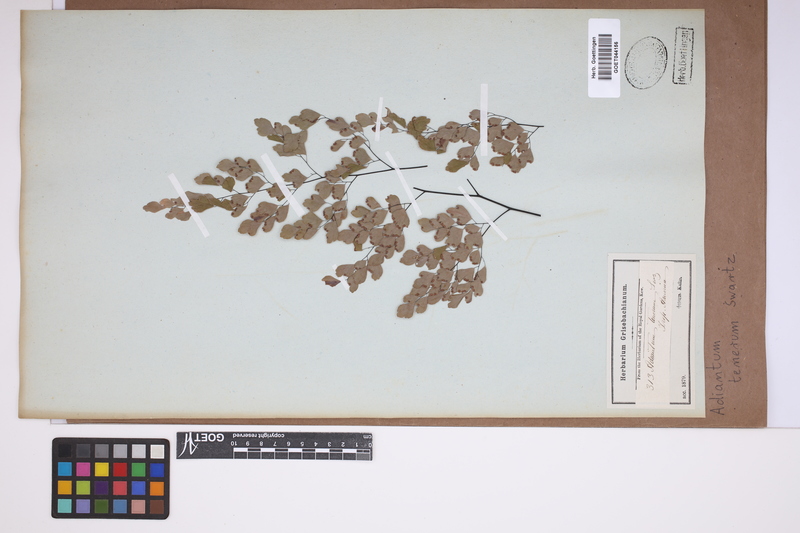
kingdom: Plantae
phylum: Tracheophyta
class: Polypodiopsida
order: Polypodiales
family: Pteridaceae
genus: Adiantum
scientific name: Adiantum tenerum
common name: Fan maidenhair
